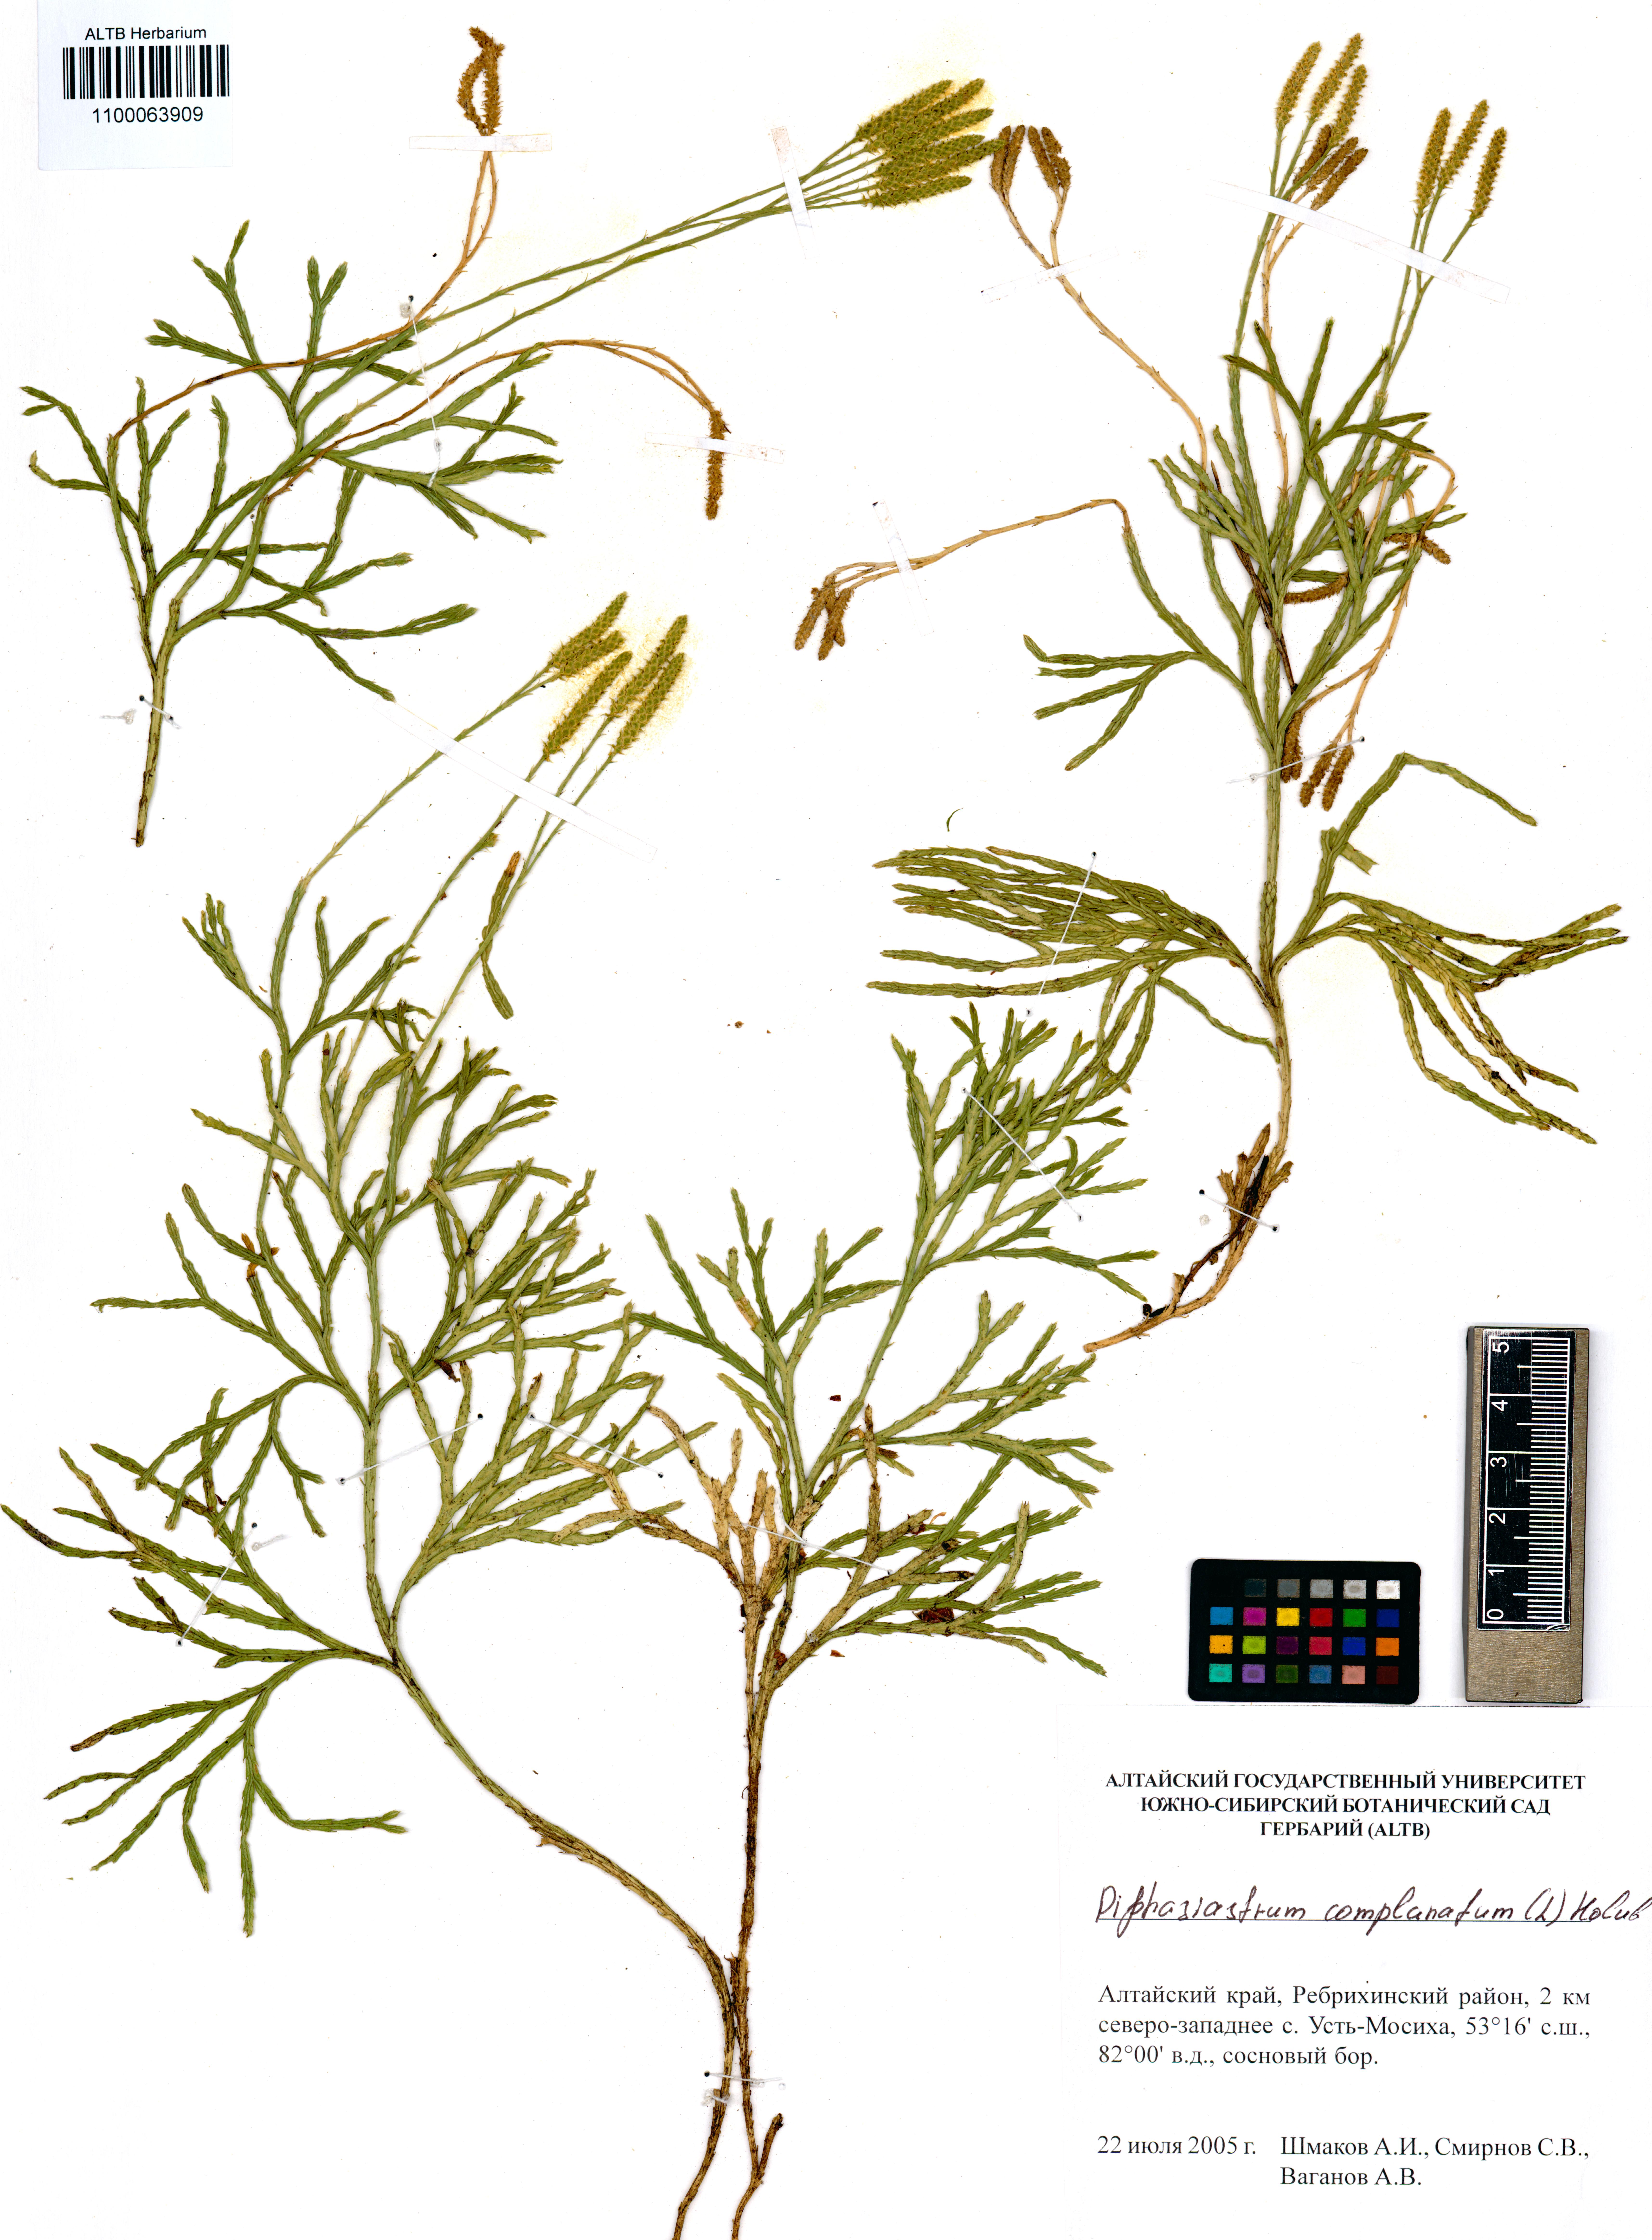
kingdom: Plantae
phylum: Tracheophyta
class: Lycopodiopsida
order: Lycopodiales
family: Lycopodiaceae
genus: Diphasiastrum
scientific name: Diphasiastrum complanatum
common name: Northern running-pine
